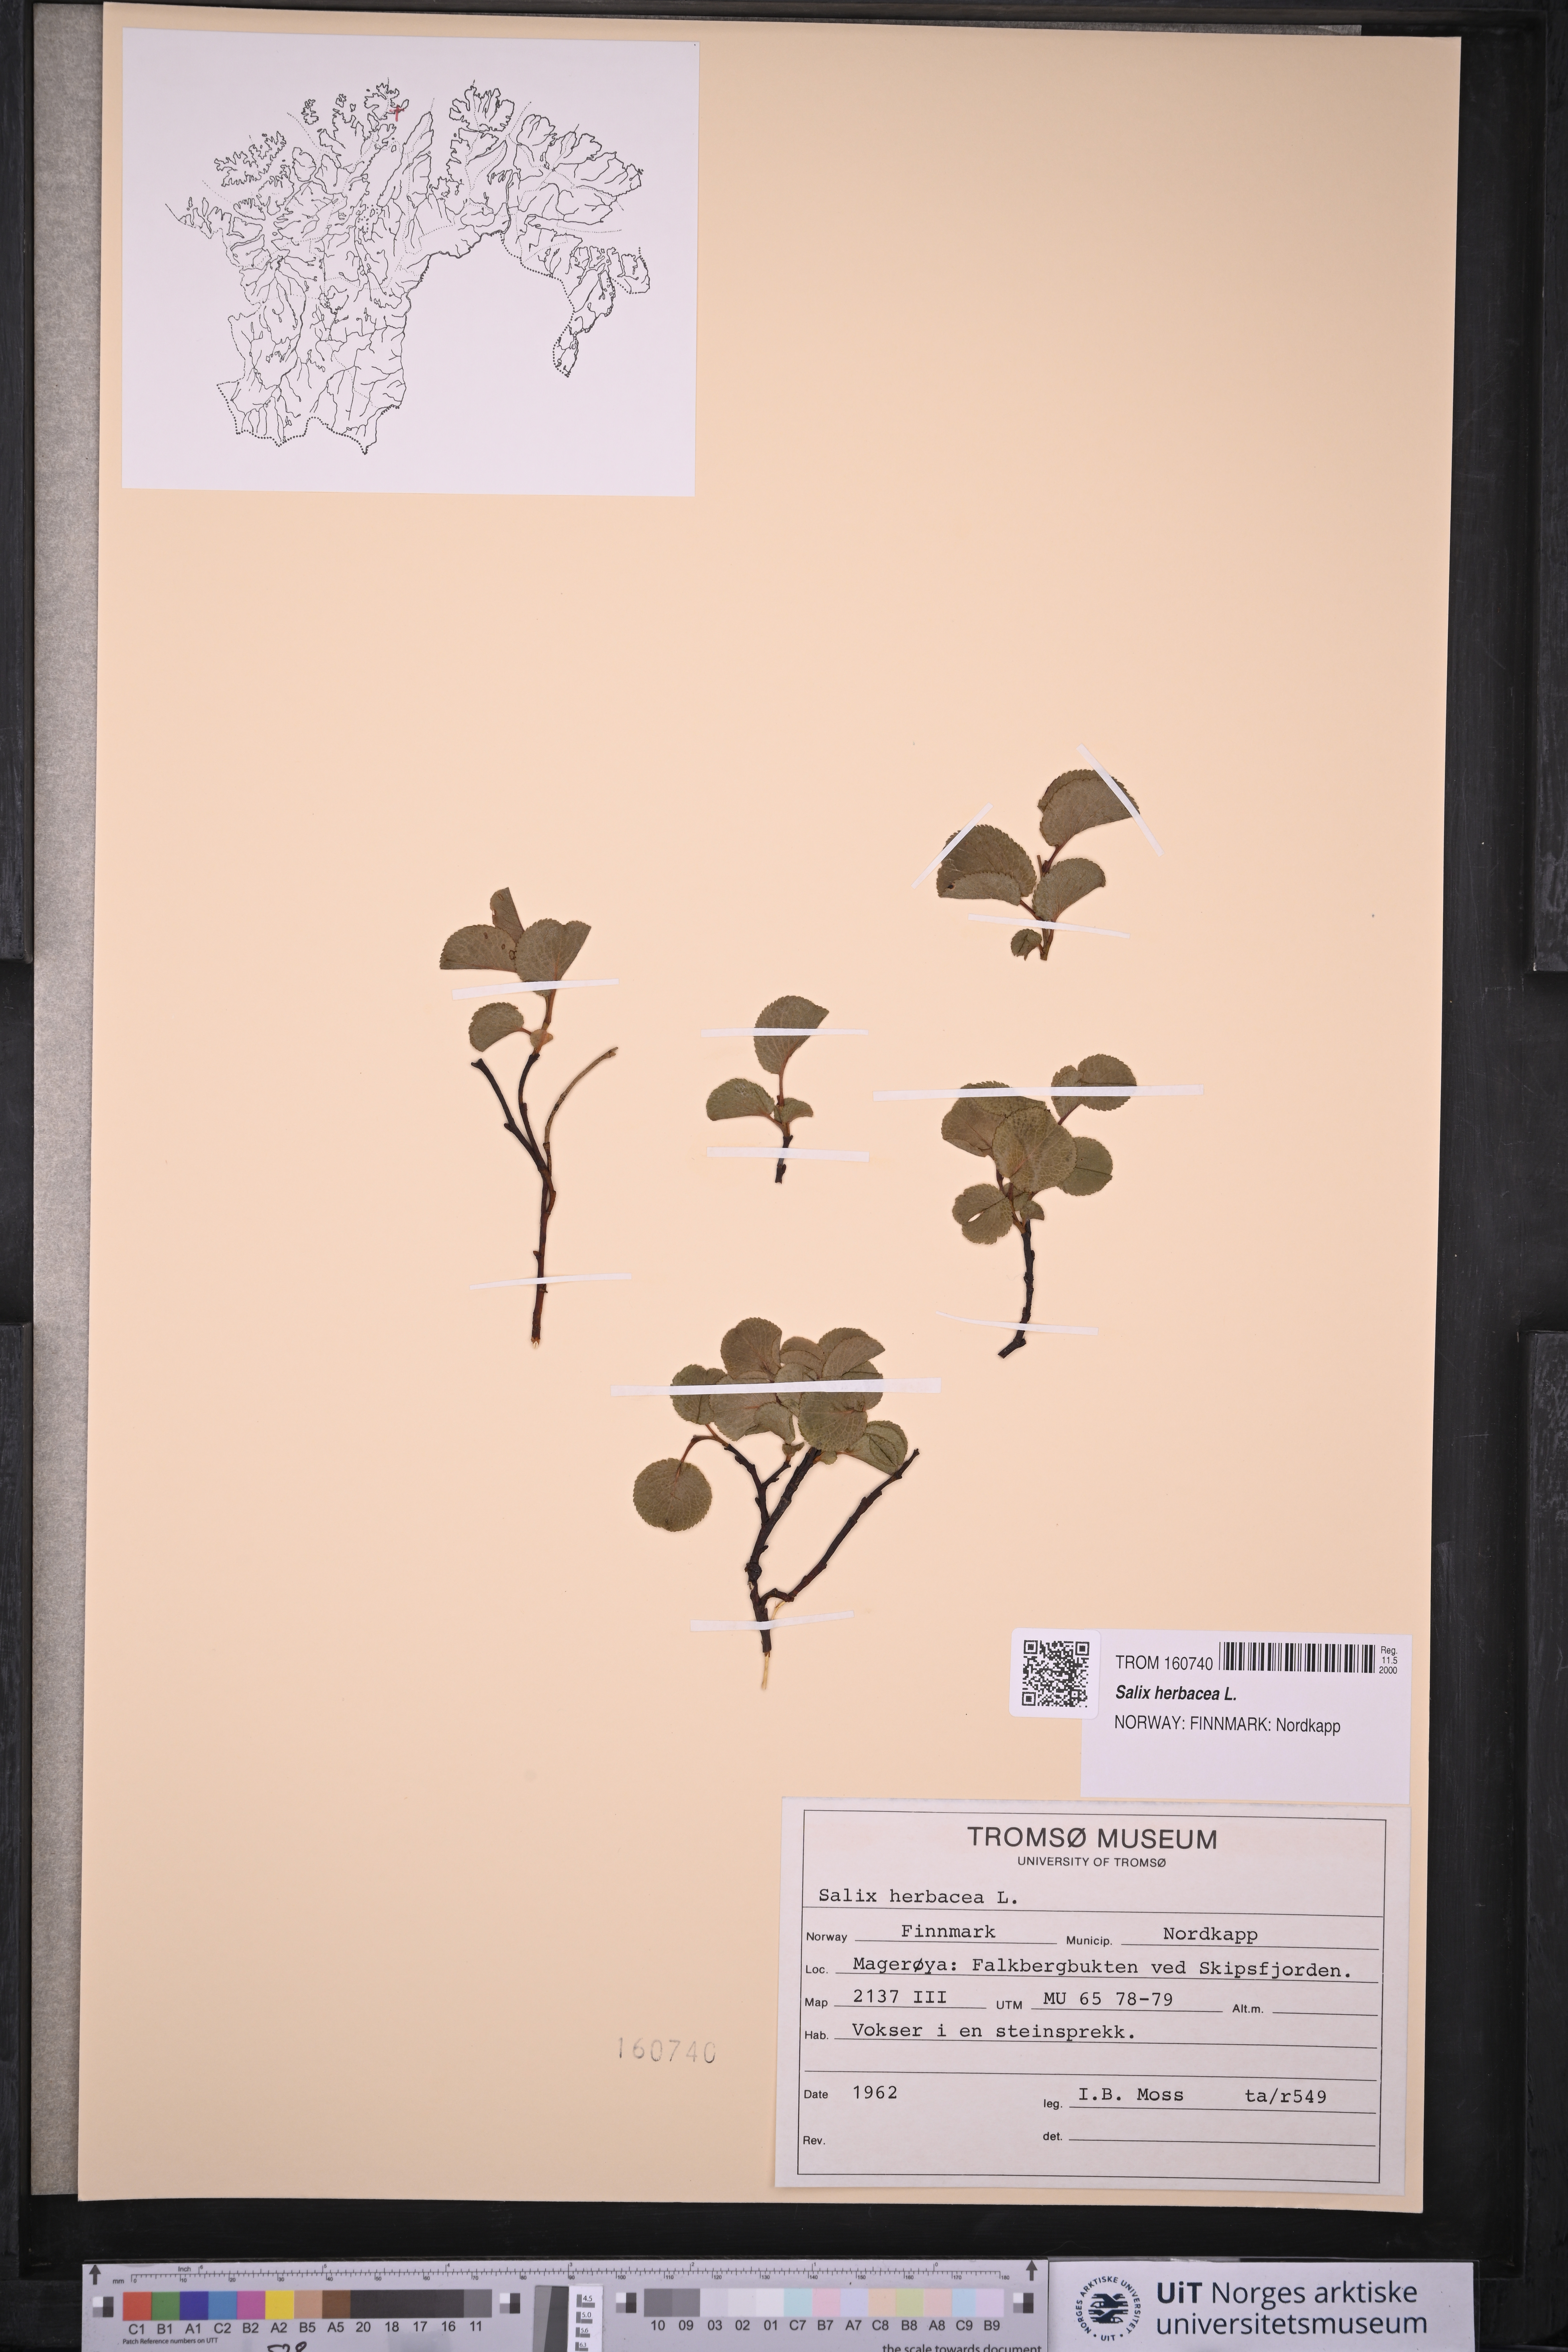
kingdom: Plantae
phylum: Tracheophyta
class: Magnoliopsida
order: Malpighiales
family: Salicaceae
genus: Salix
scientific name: Salix herbacea
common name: Dwarf willow
